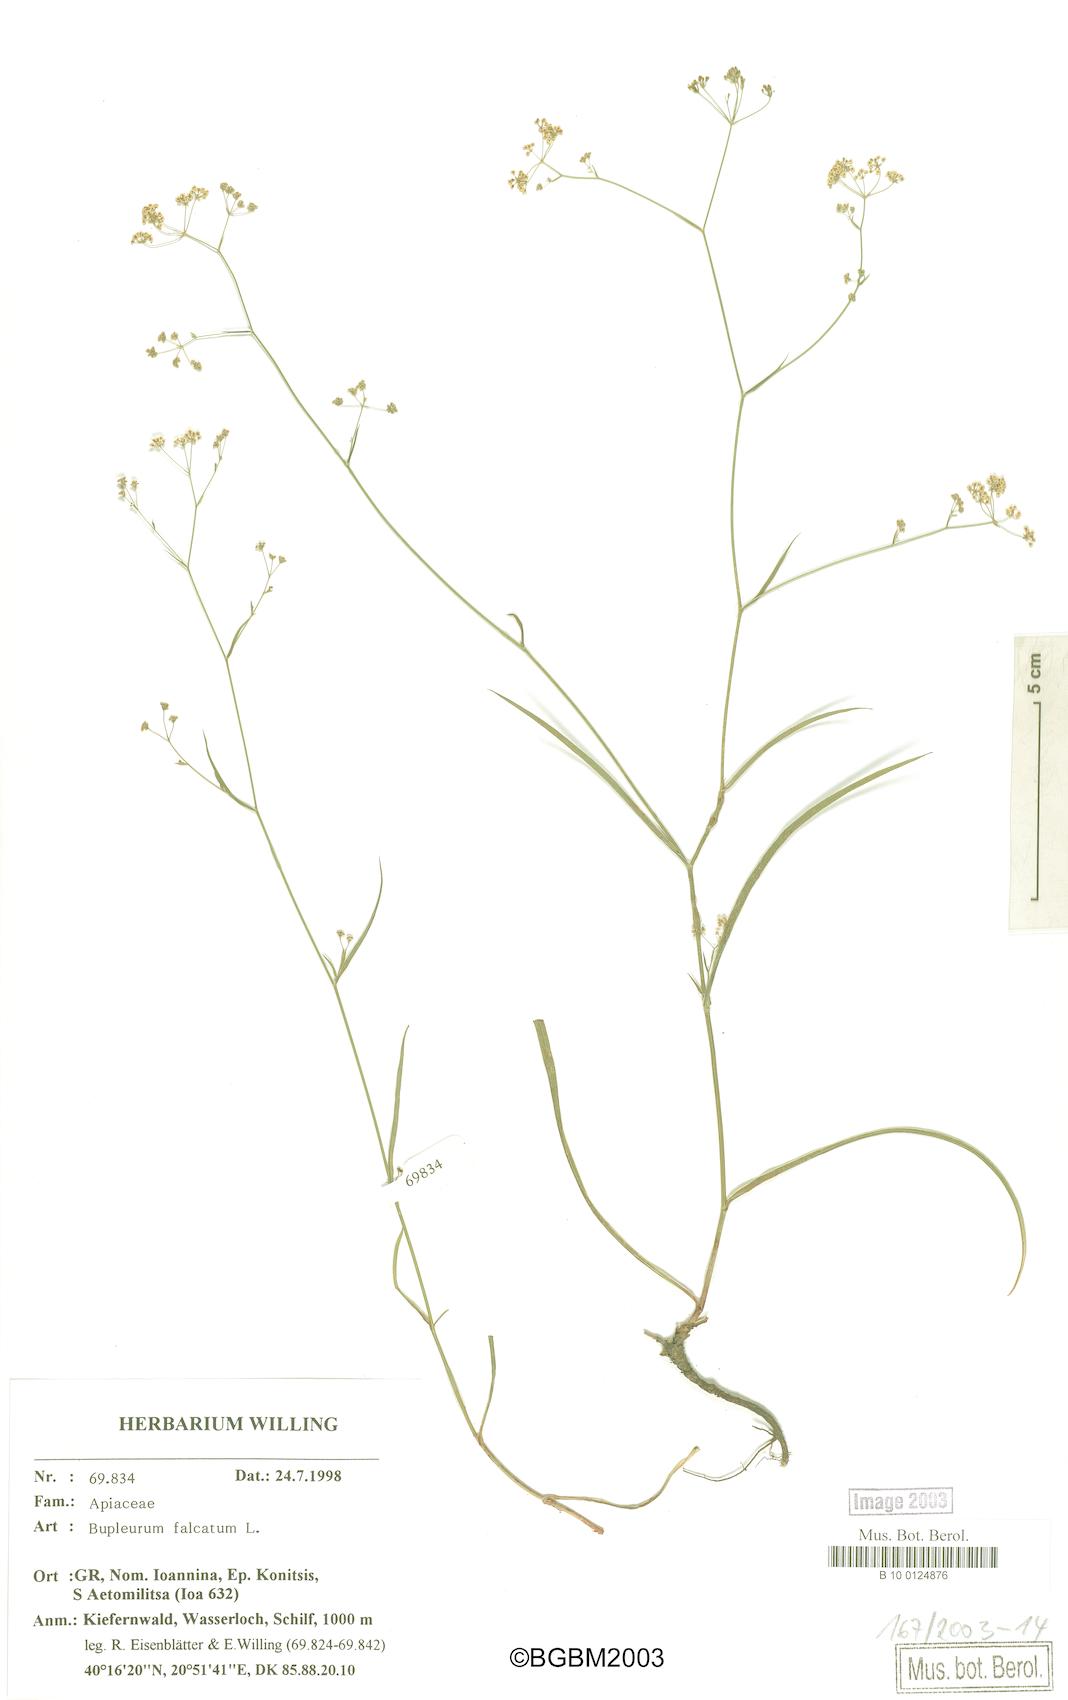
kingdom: Plantae
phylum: Tracheophyta
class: Magnoliopsida
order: Apiales
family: Apiaceae
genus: Bupleurum
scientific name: Bupleurum falcatum
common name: Sickle-leaved hare's-ear
